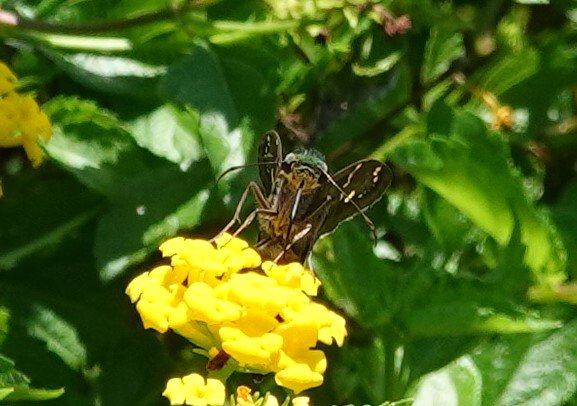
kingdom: Animalia
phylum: Arthropoda
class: Insecta
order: Lepidoptera
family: Hesperiidae
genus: Urbanus
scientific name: Urbanus proteus
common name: Long-tailed Skipper
